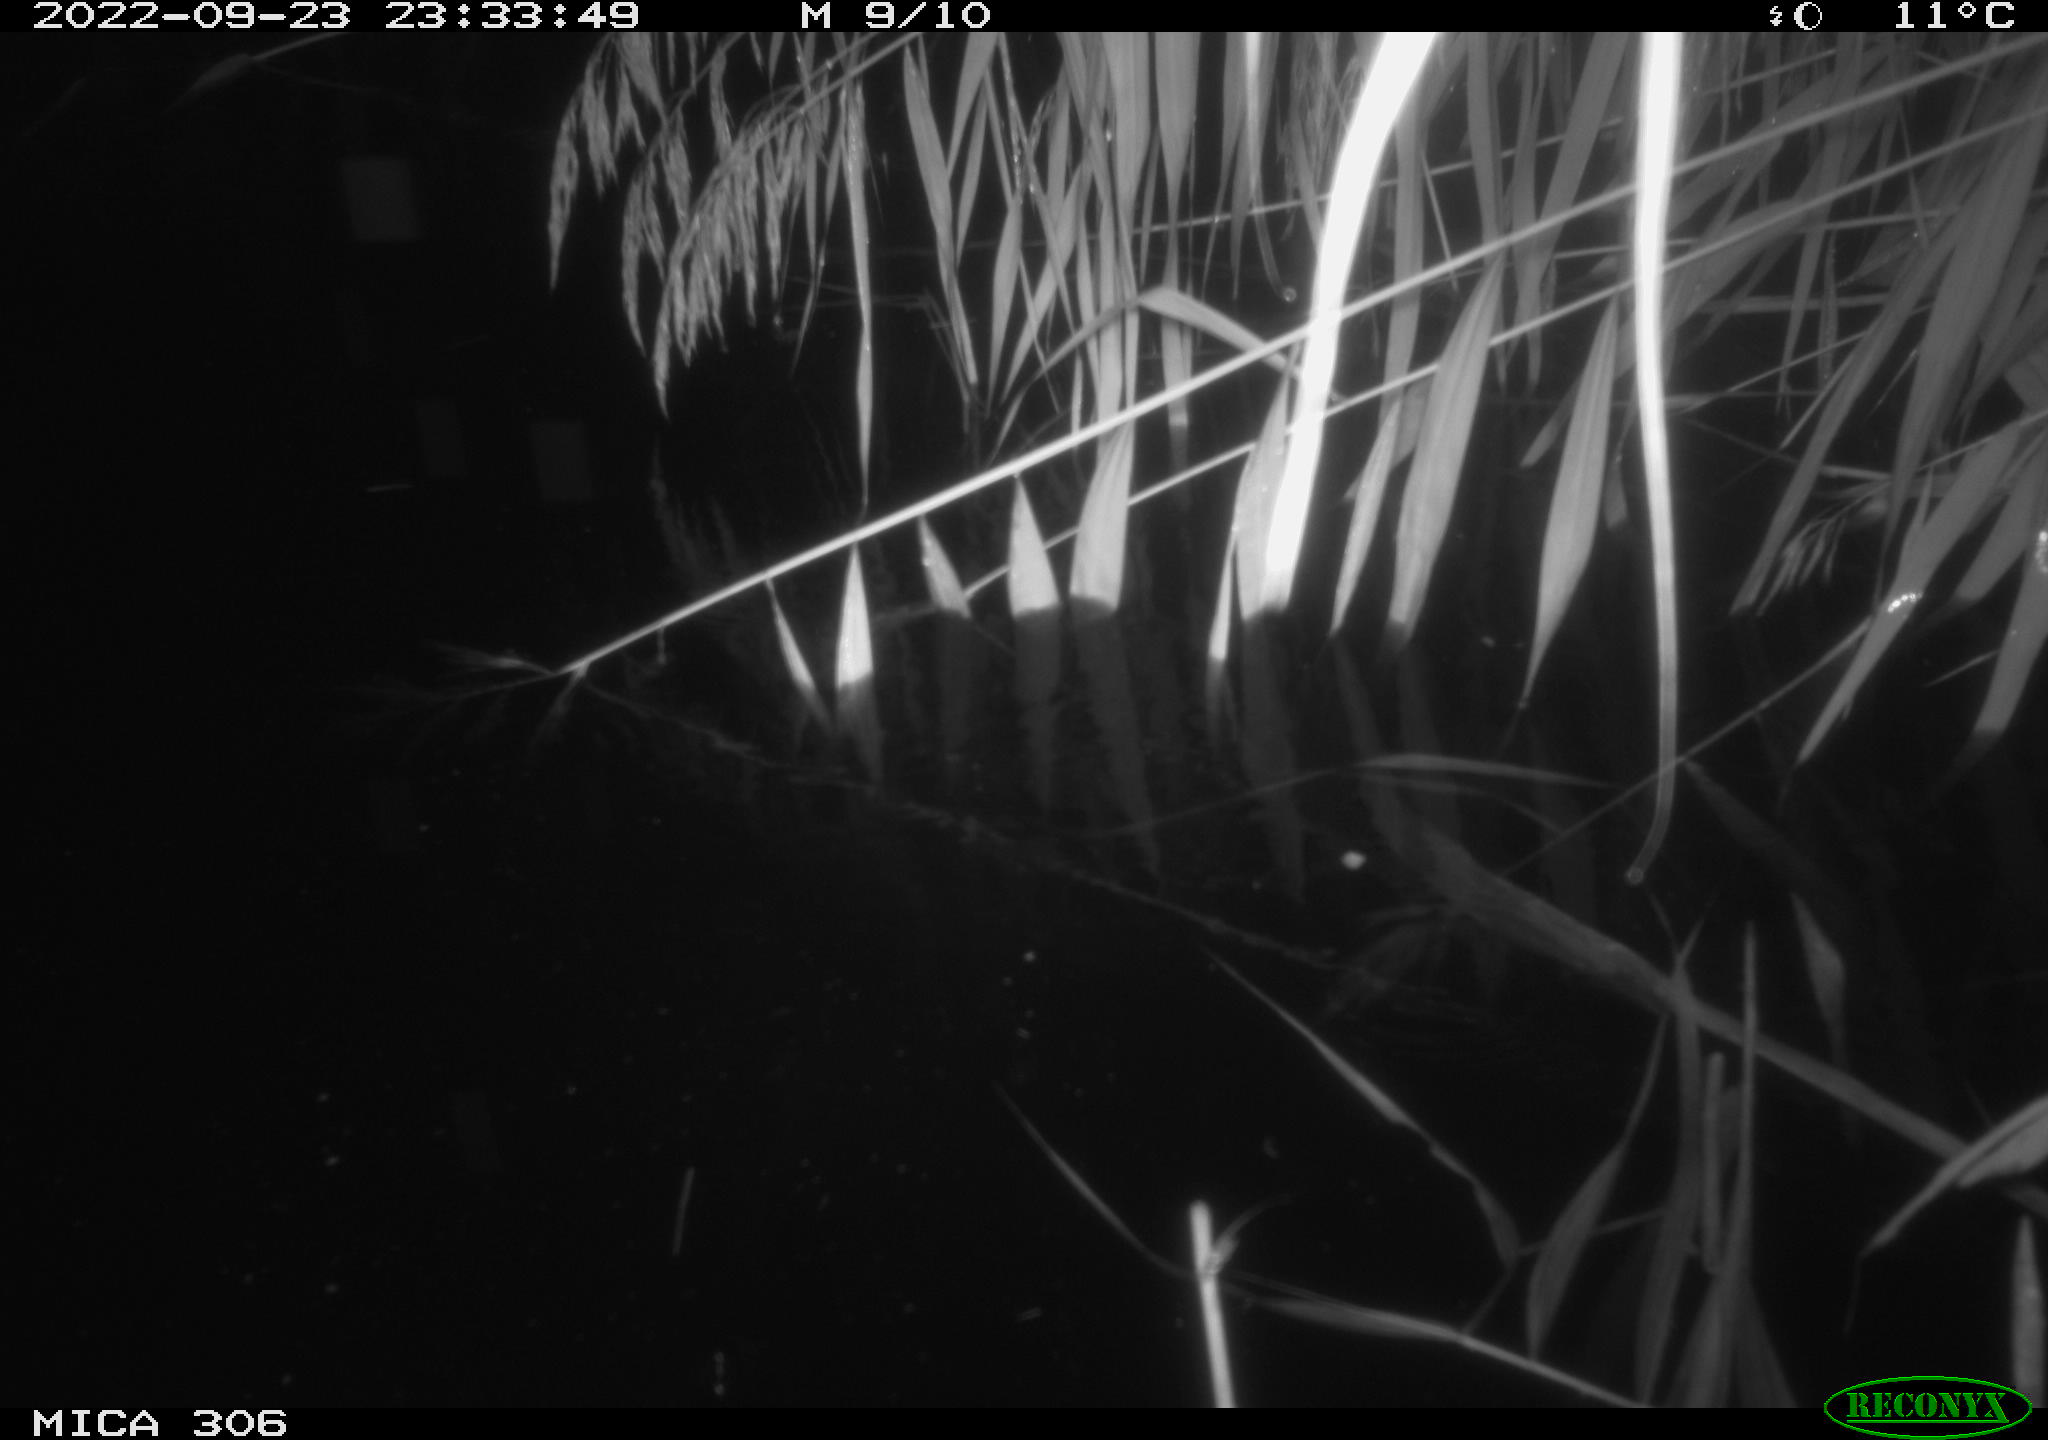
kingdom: Animalia
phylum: Chordata
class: Mammalia
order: Rodentia
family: Muridae
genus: Rattus
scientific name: Rattus norvegicus
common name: Brown rat
